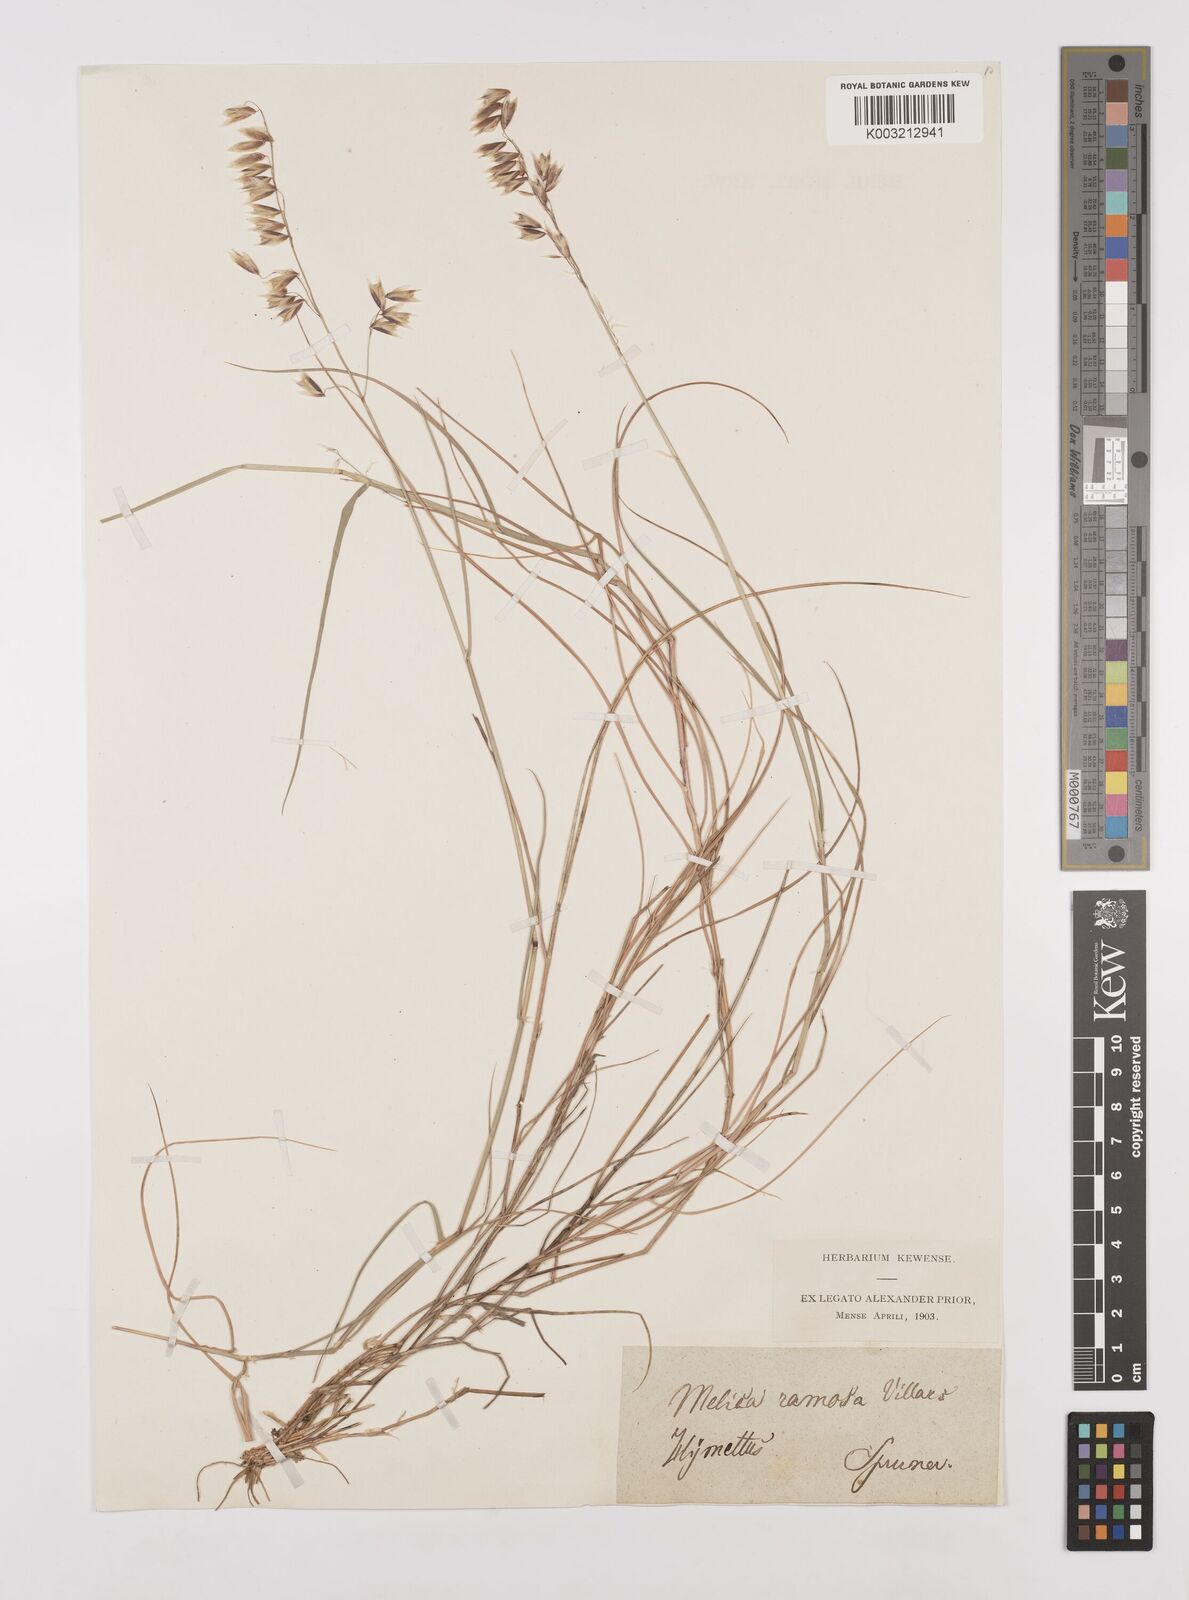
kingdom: Plantae
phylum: Tracheophyta
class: Liliopsida
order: Poales
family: Poaceae
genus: Melica
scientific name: Melica minuta
